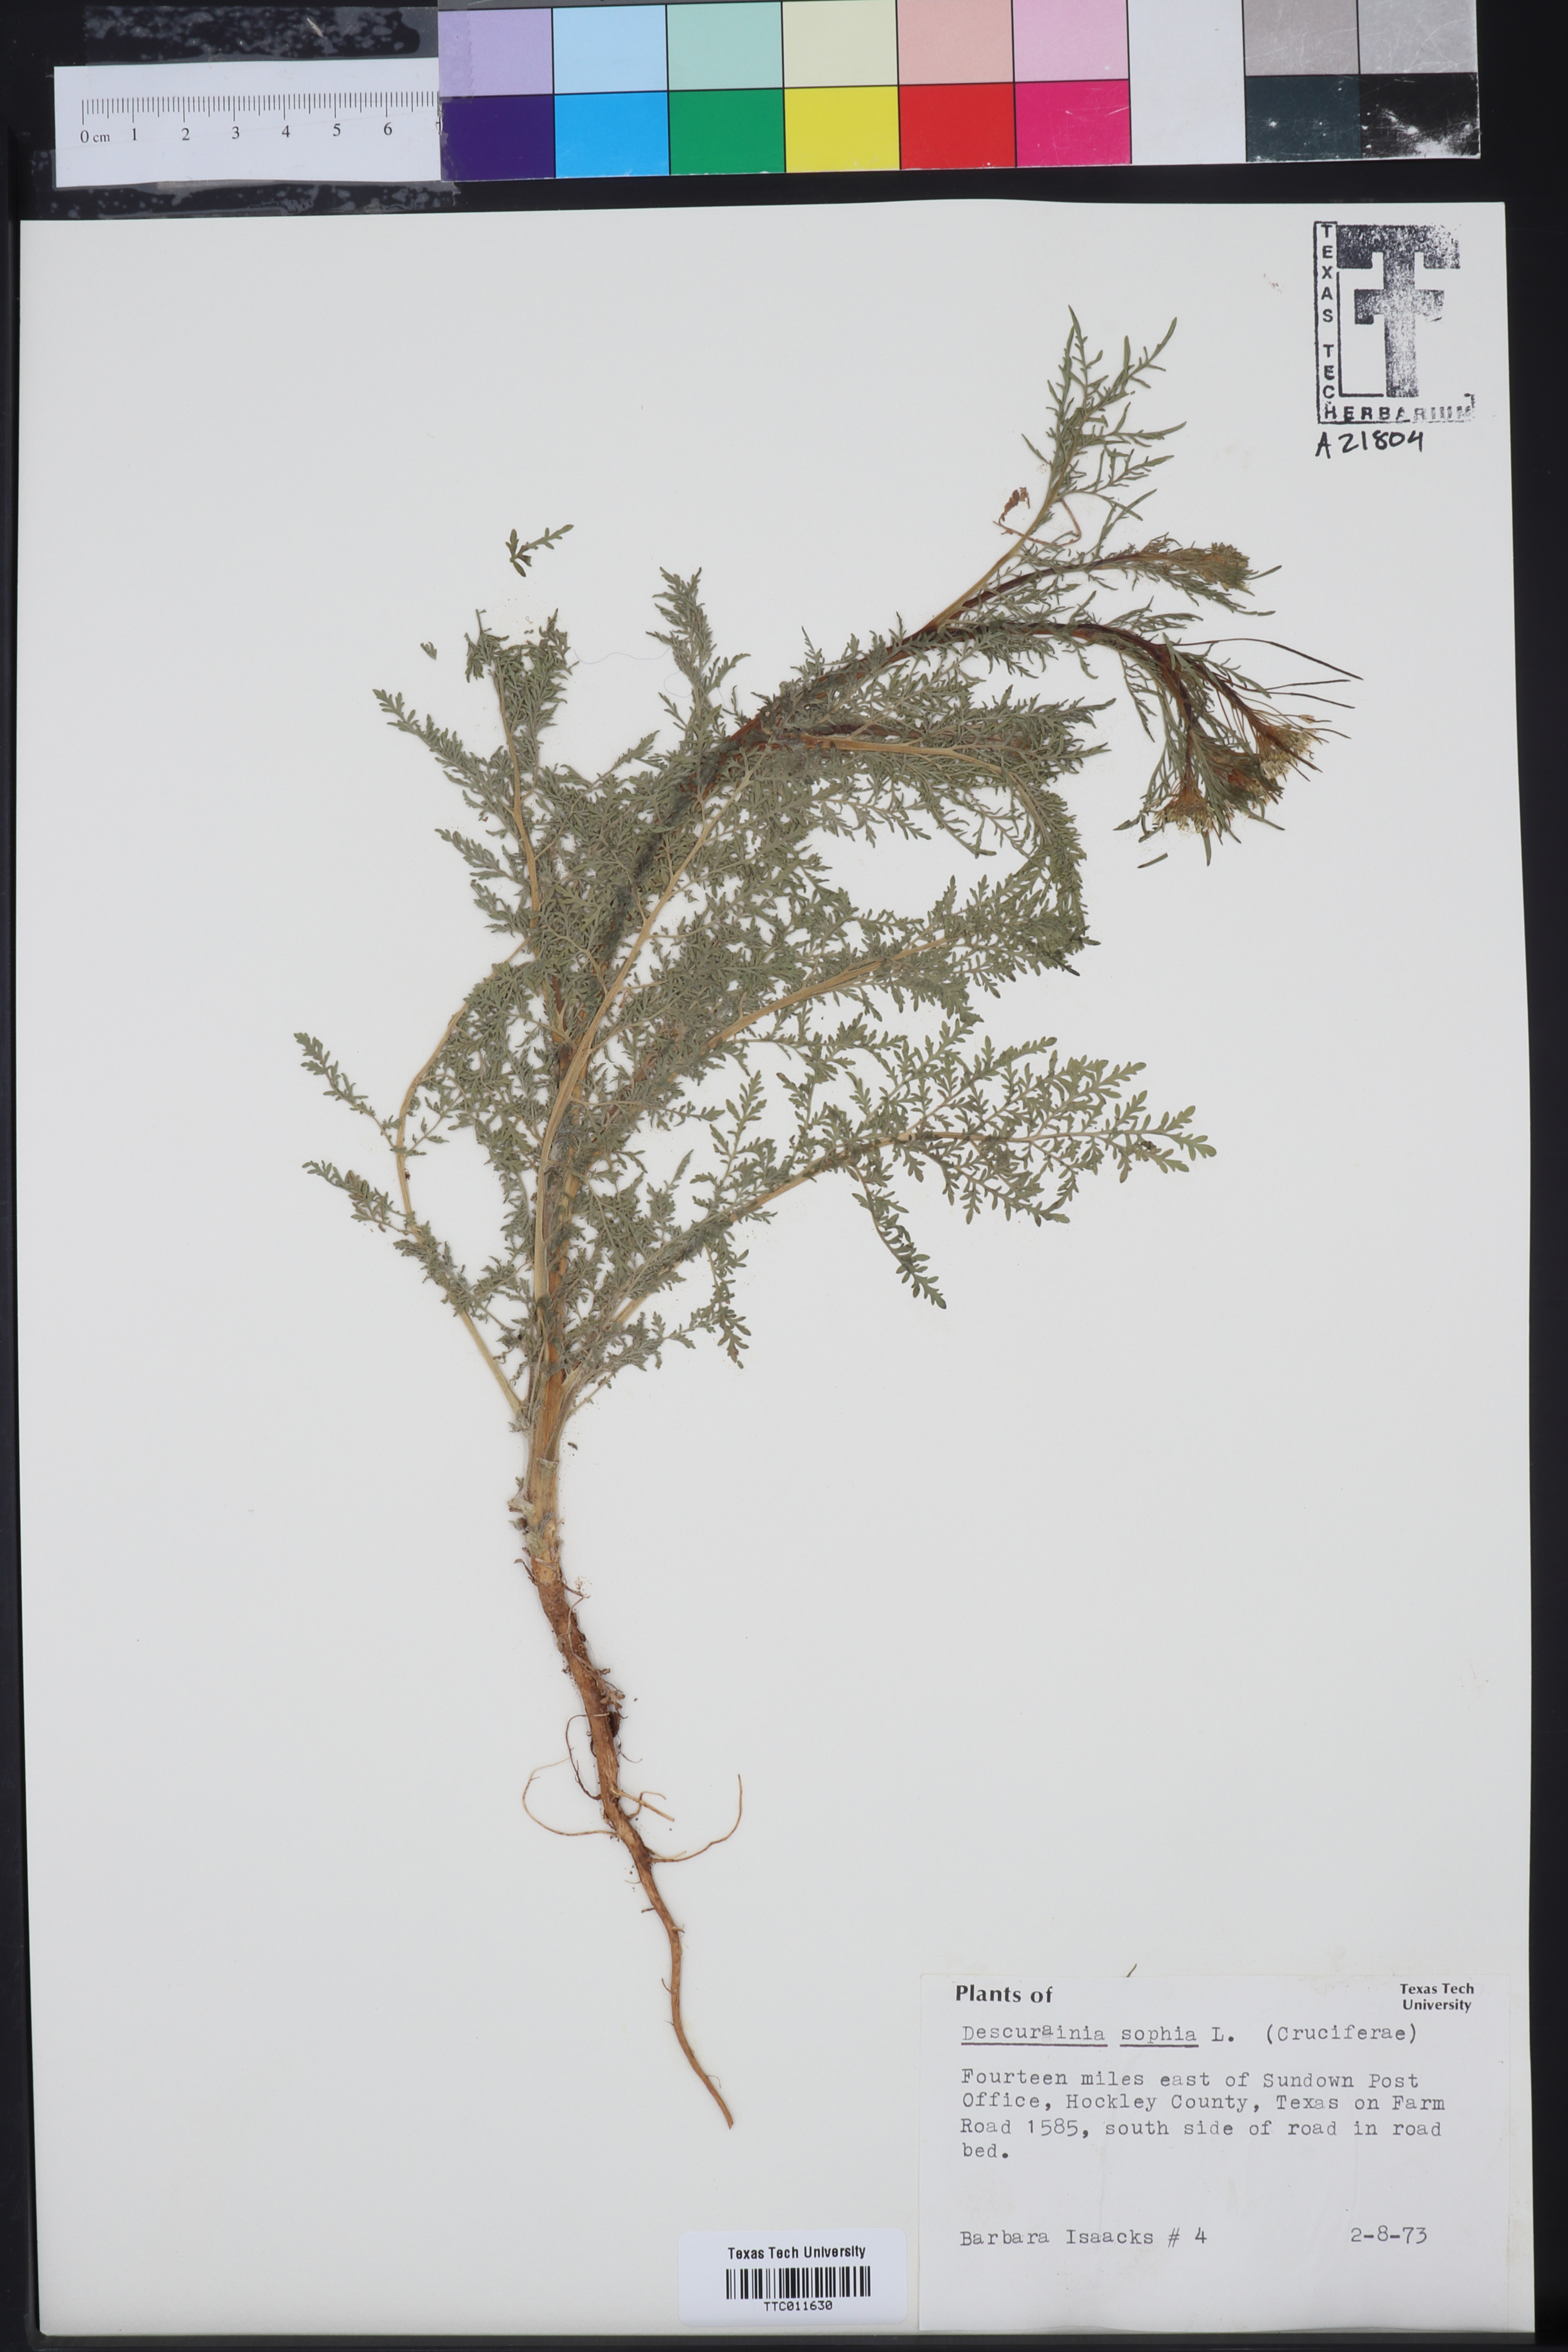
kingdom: Plantae
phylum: Tracheophyta
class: Magnoliopsida
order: Brassicales
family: Brassicaceae
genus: Descurainia
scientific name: Descurainia sophia
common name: Flixweed
